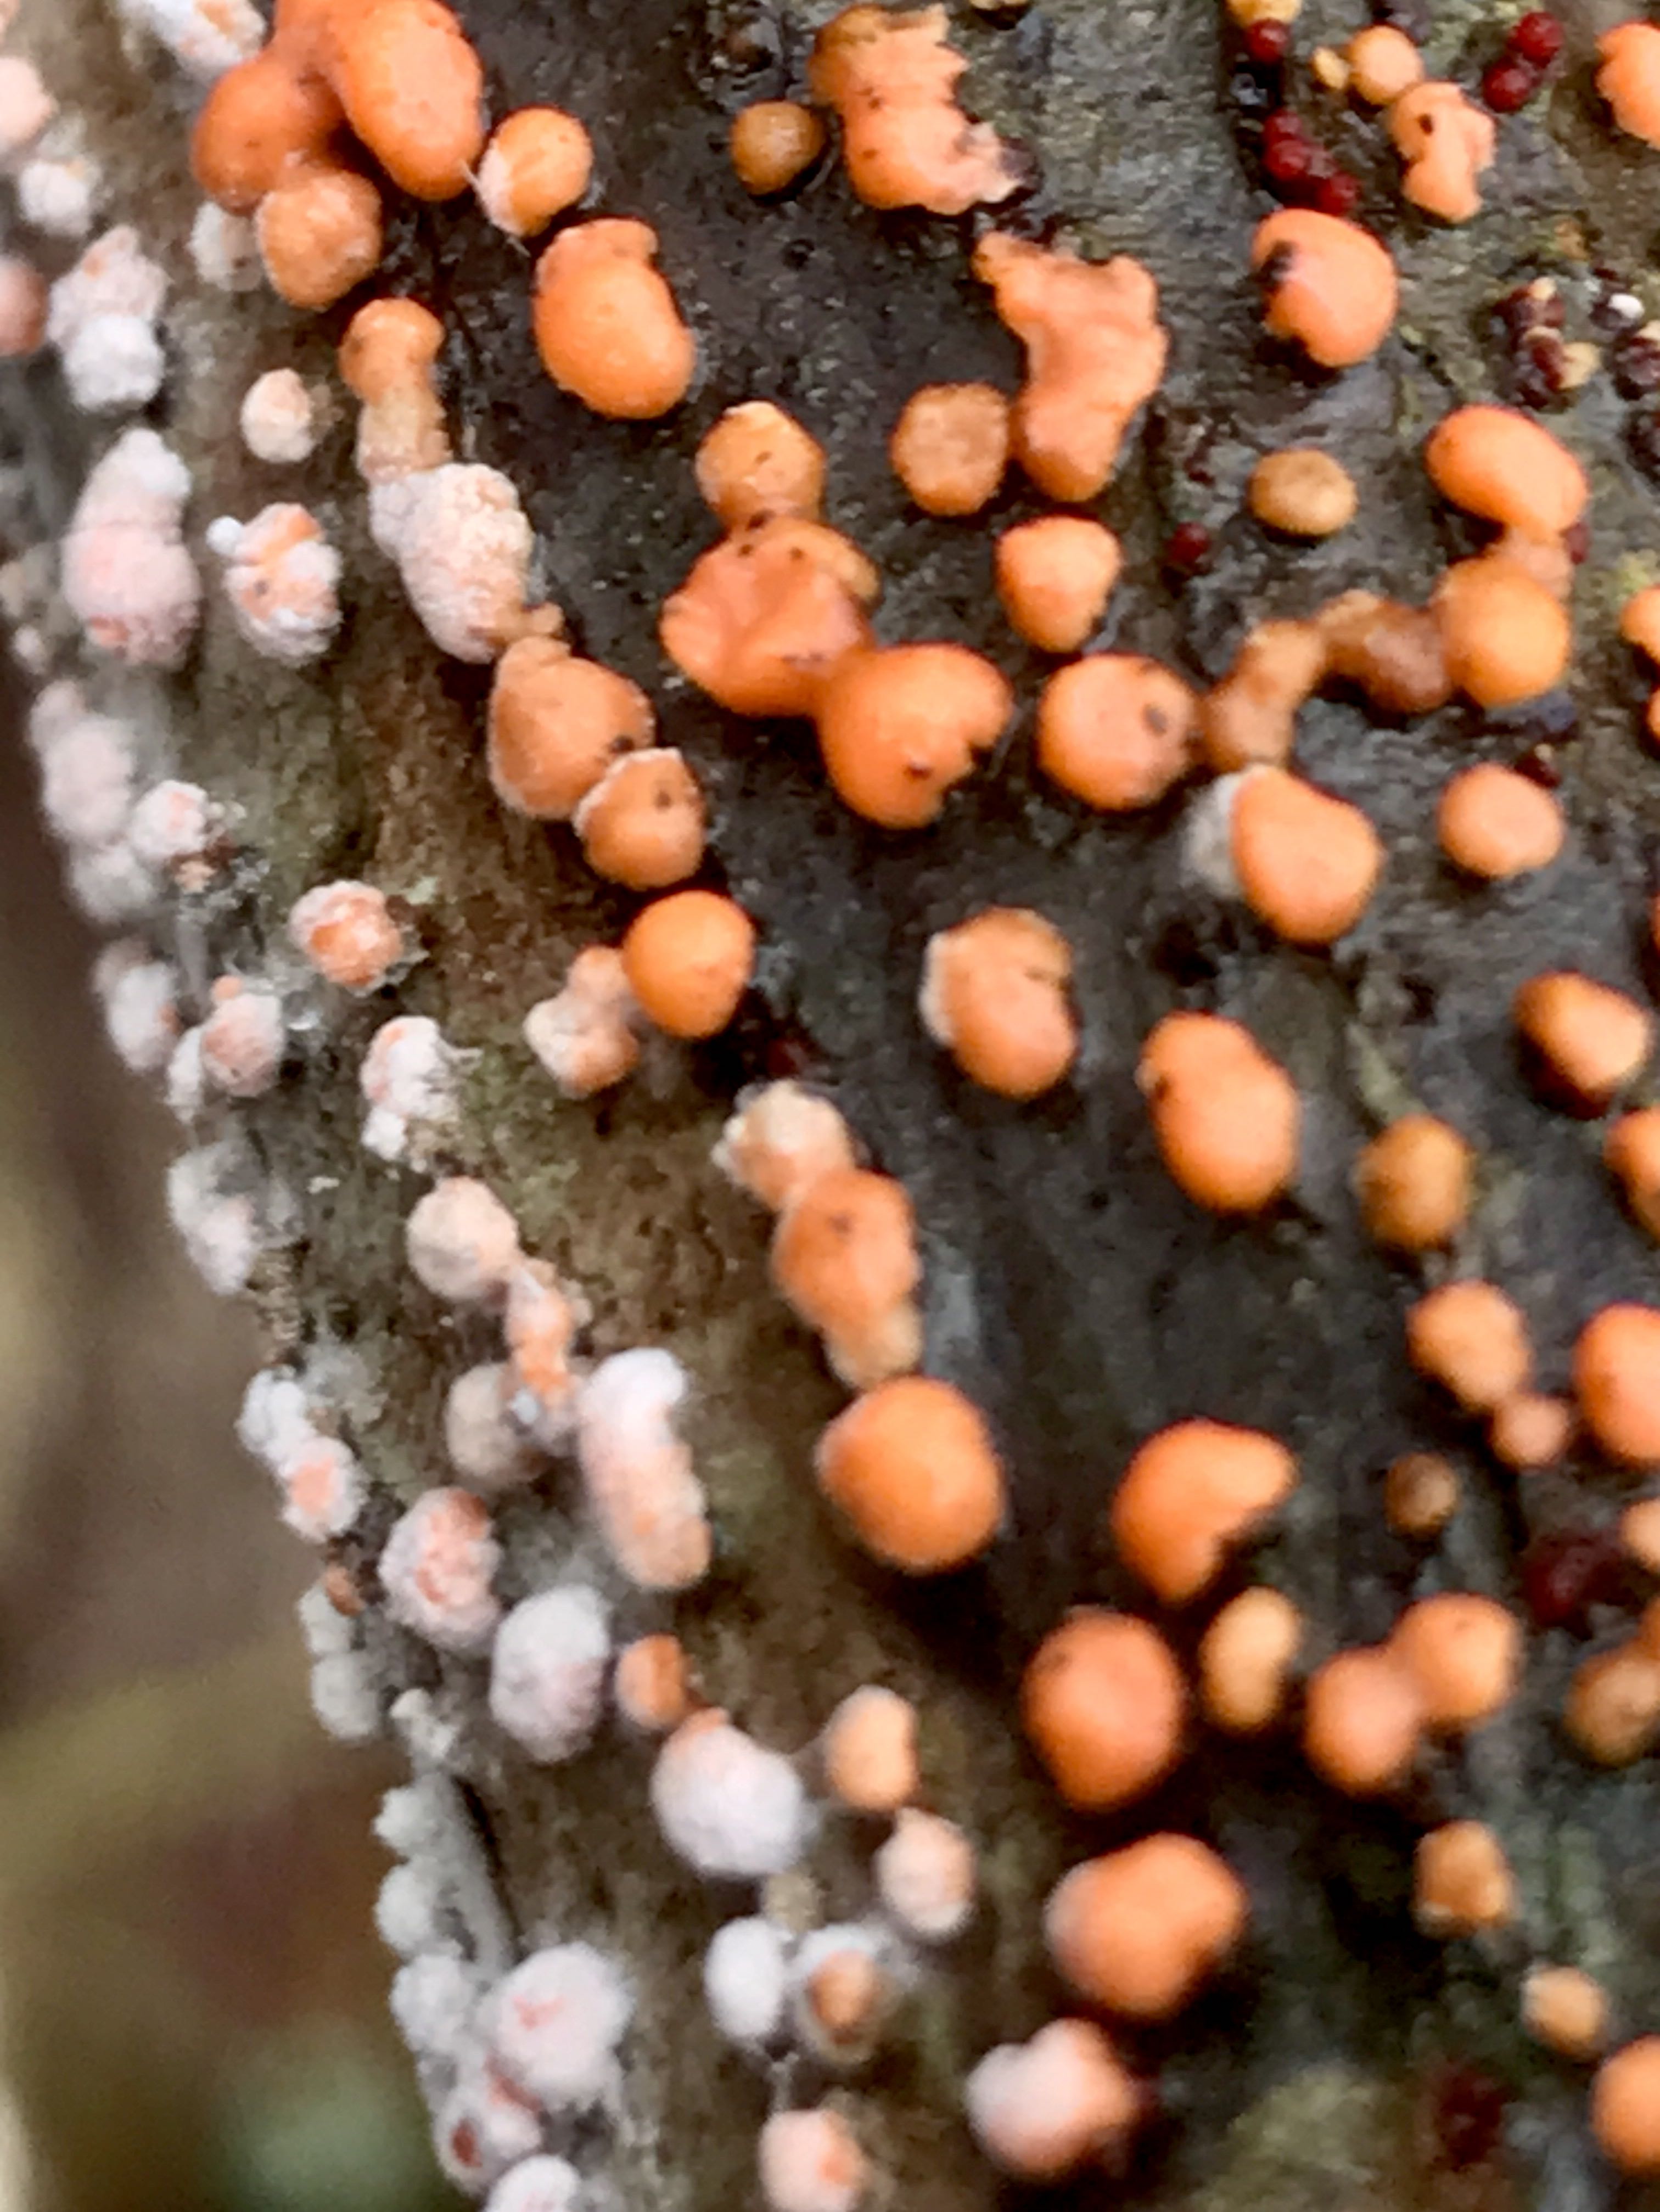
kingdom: Fungi
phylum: Ascomycota
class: Sordariomycetes
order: Hypocreales
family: Nectriaceae
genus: Nectria
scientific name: Nectria cinnabarina
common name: almindelig cinnobersvamp
